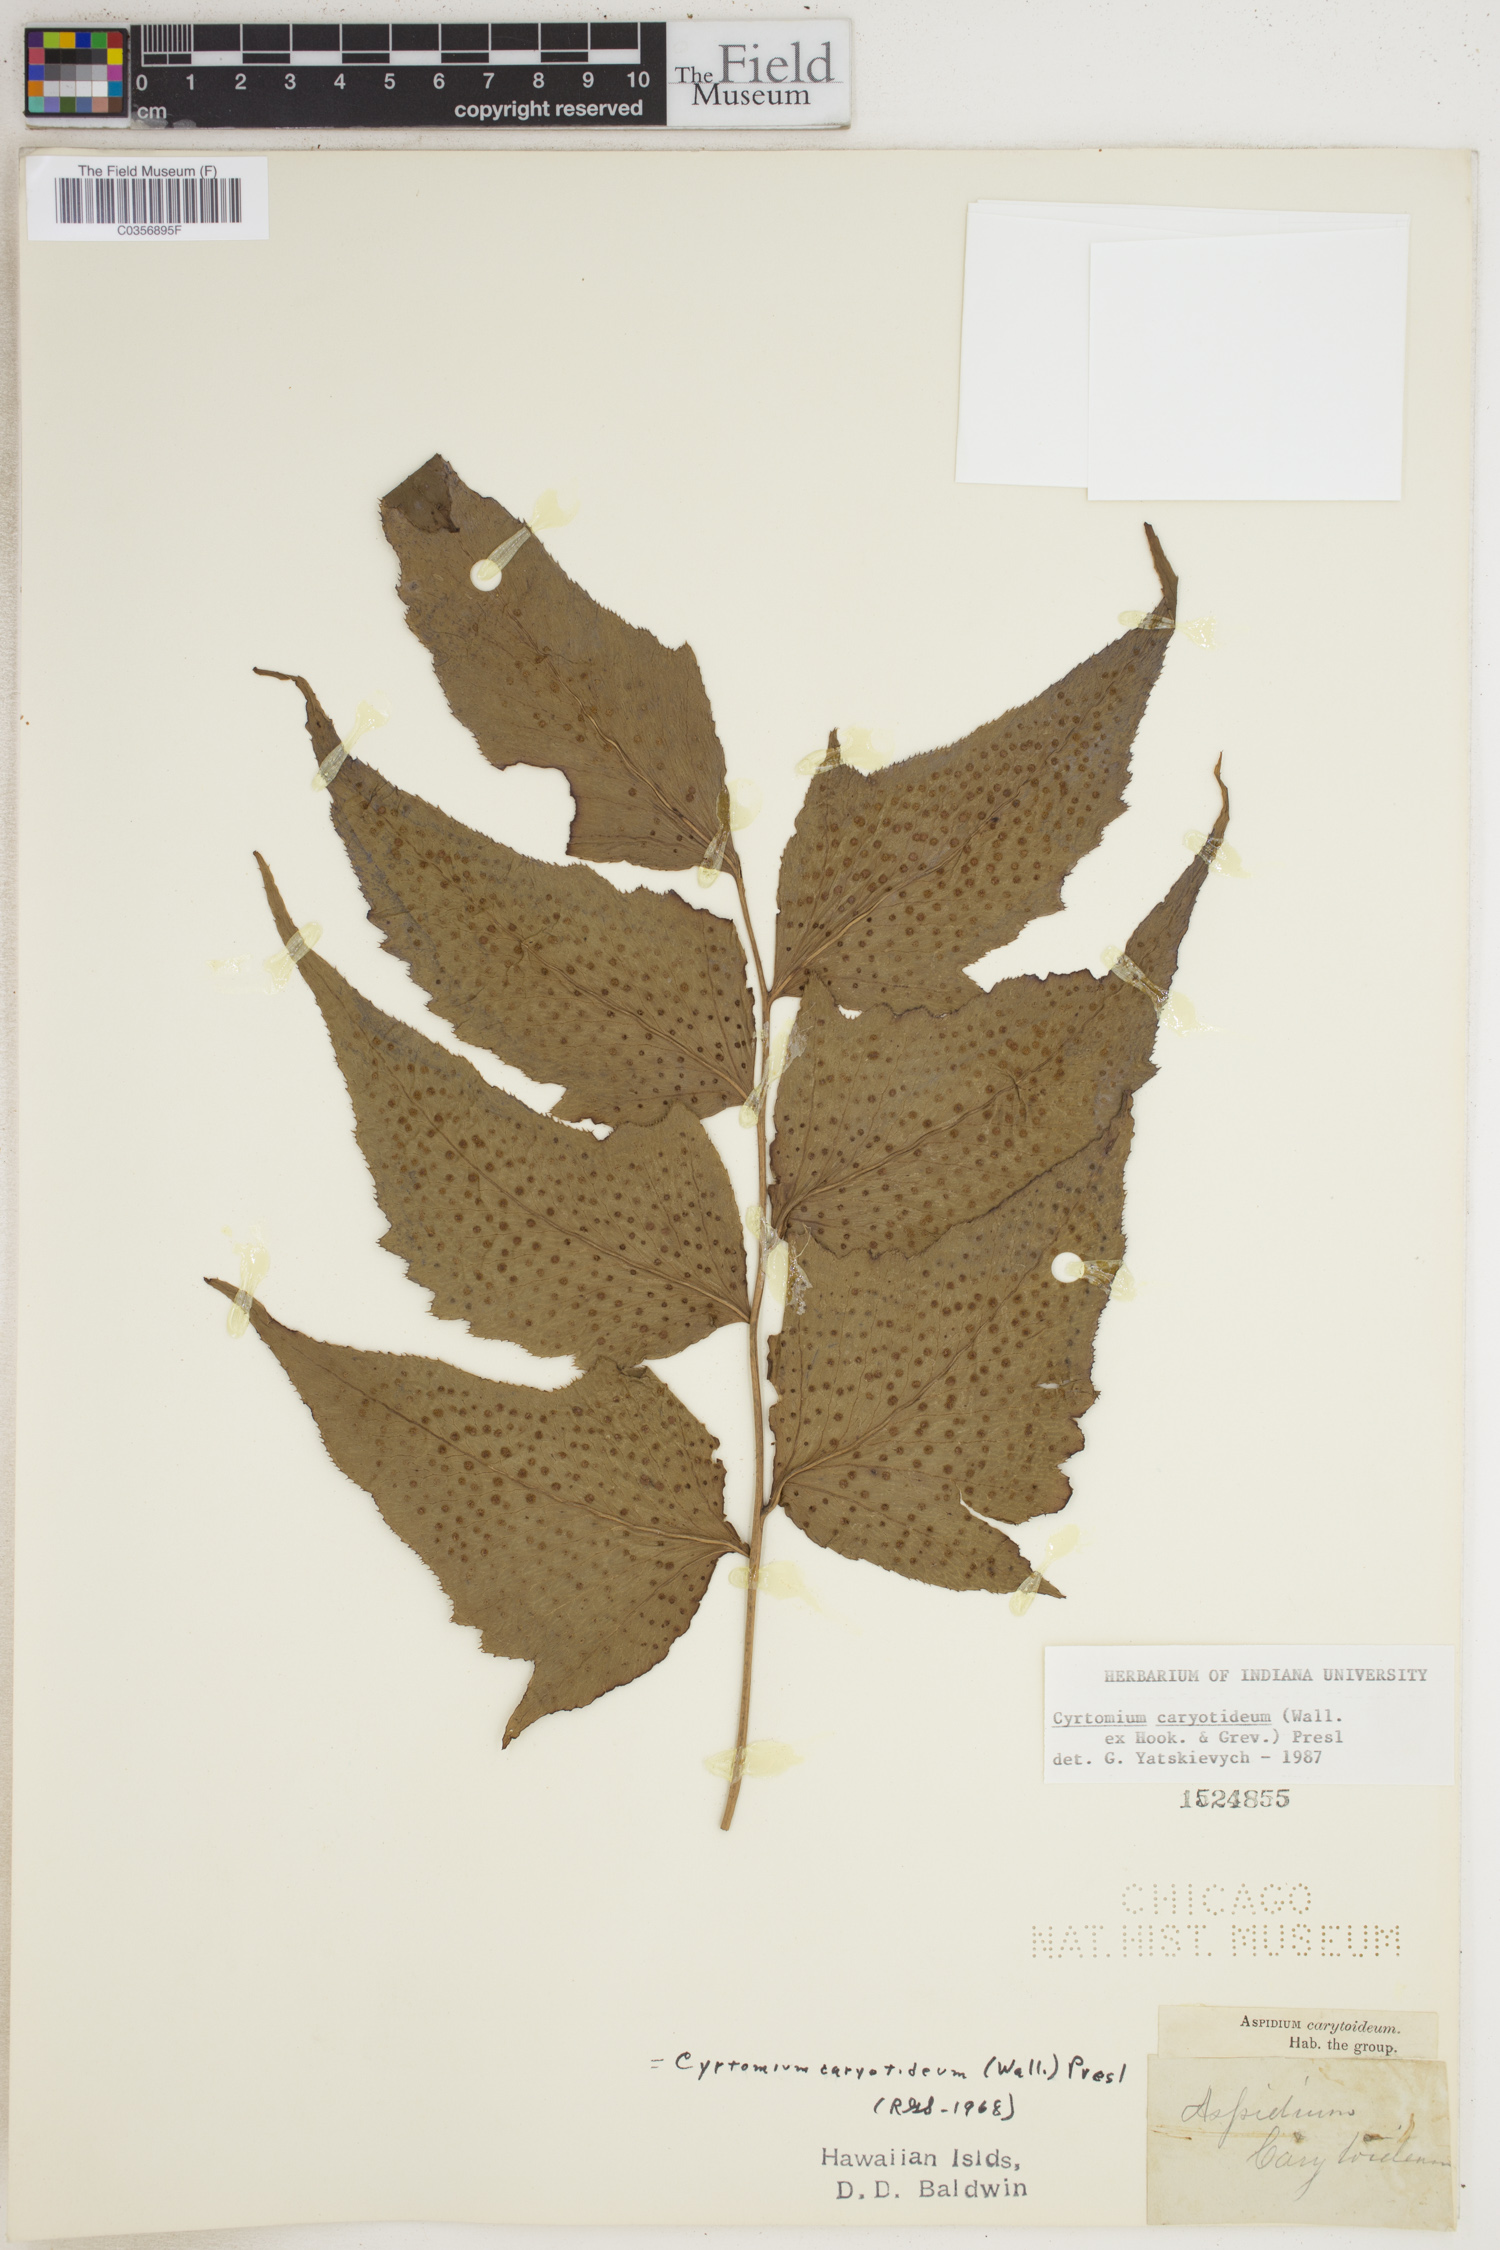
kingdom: Plantae
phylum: Tracheophyta
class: Polypodiopsida
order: Polypodiales
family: Dryopteridaceae
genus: Cyrtomium
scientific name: Cyrtomium caryotideum
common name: Asiatic holly fern
